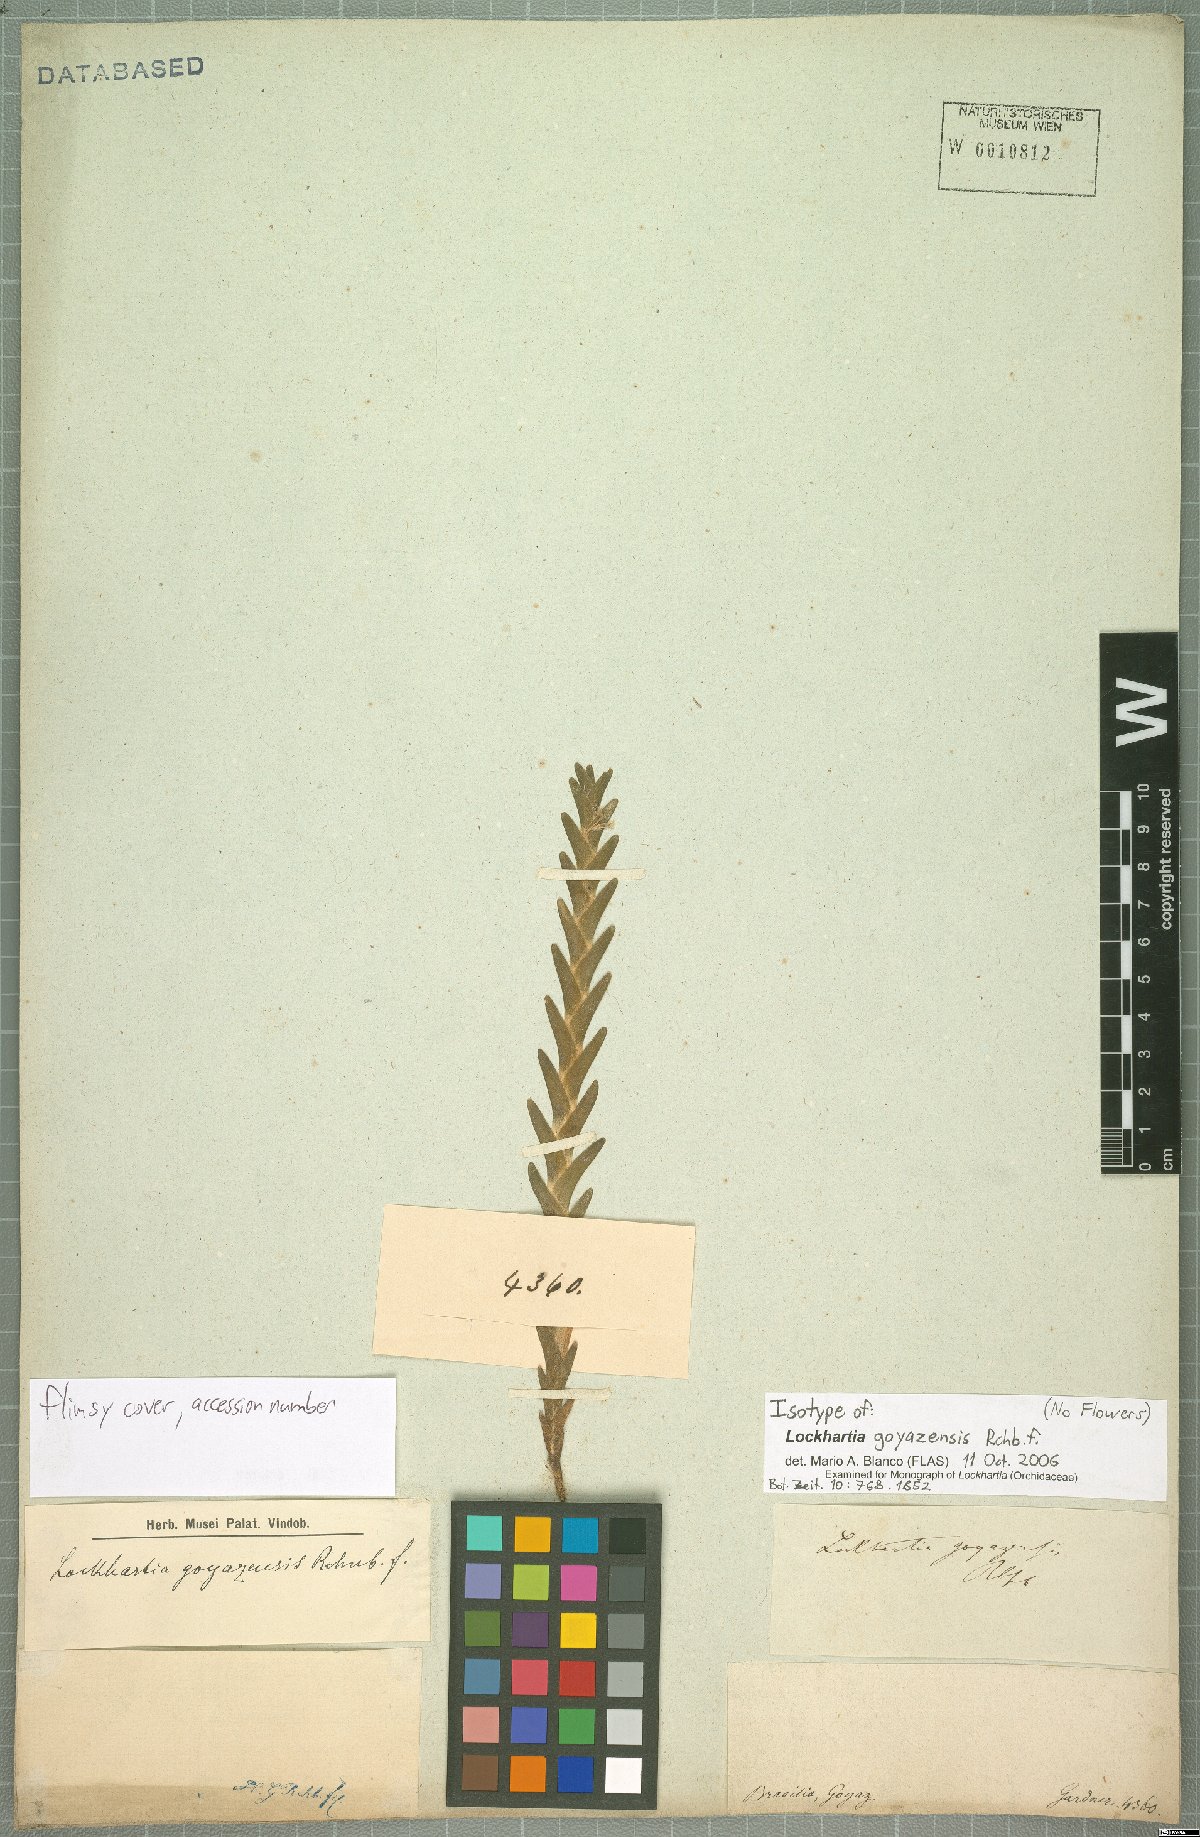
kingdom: Plantae
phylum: Tracheophyta
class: Liliopsida
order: Asparagales
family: Orchidaceae
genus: Lockhartia
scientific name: Lockhartia goyazensis
